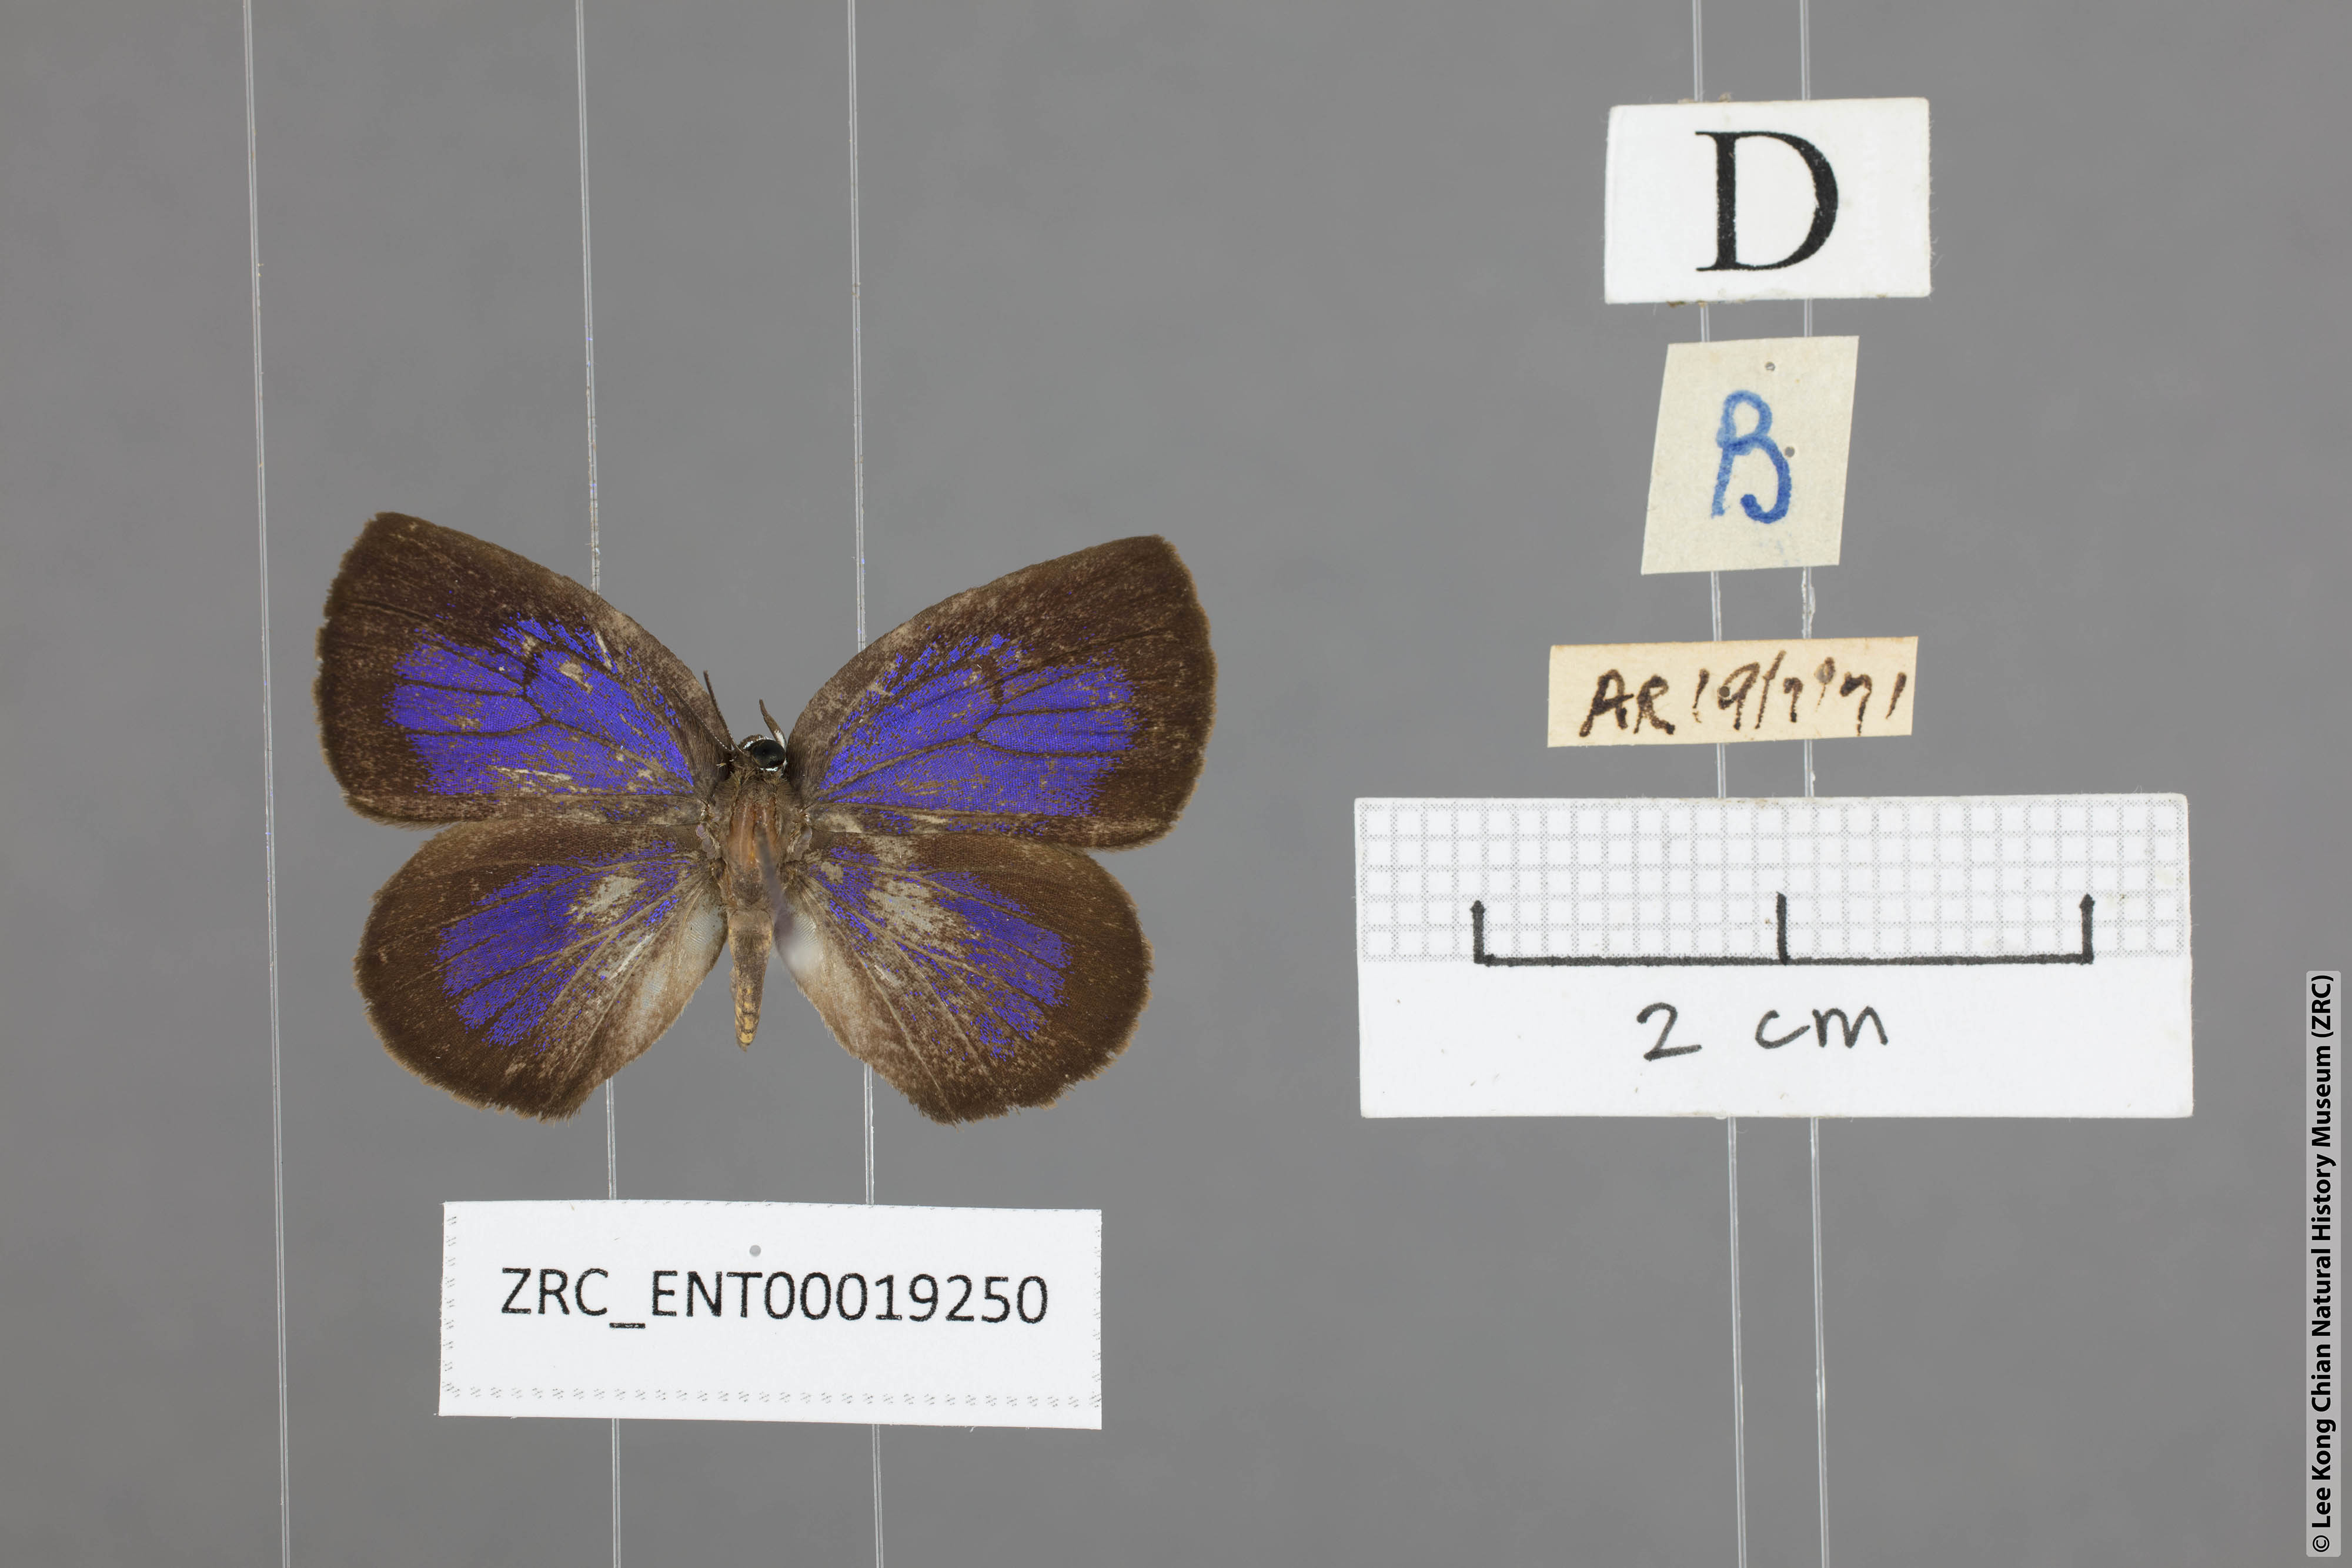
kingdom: Animalia
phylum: Arthropoda
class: Insecta
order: Lepidoptera
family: Lycaenidae
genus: Arhopala
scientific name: Arhopala avatha
